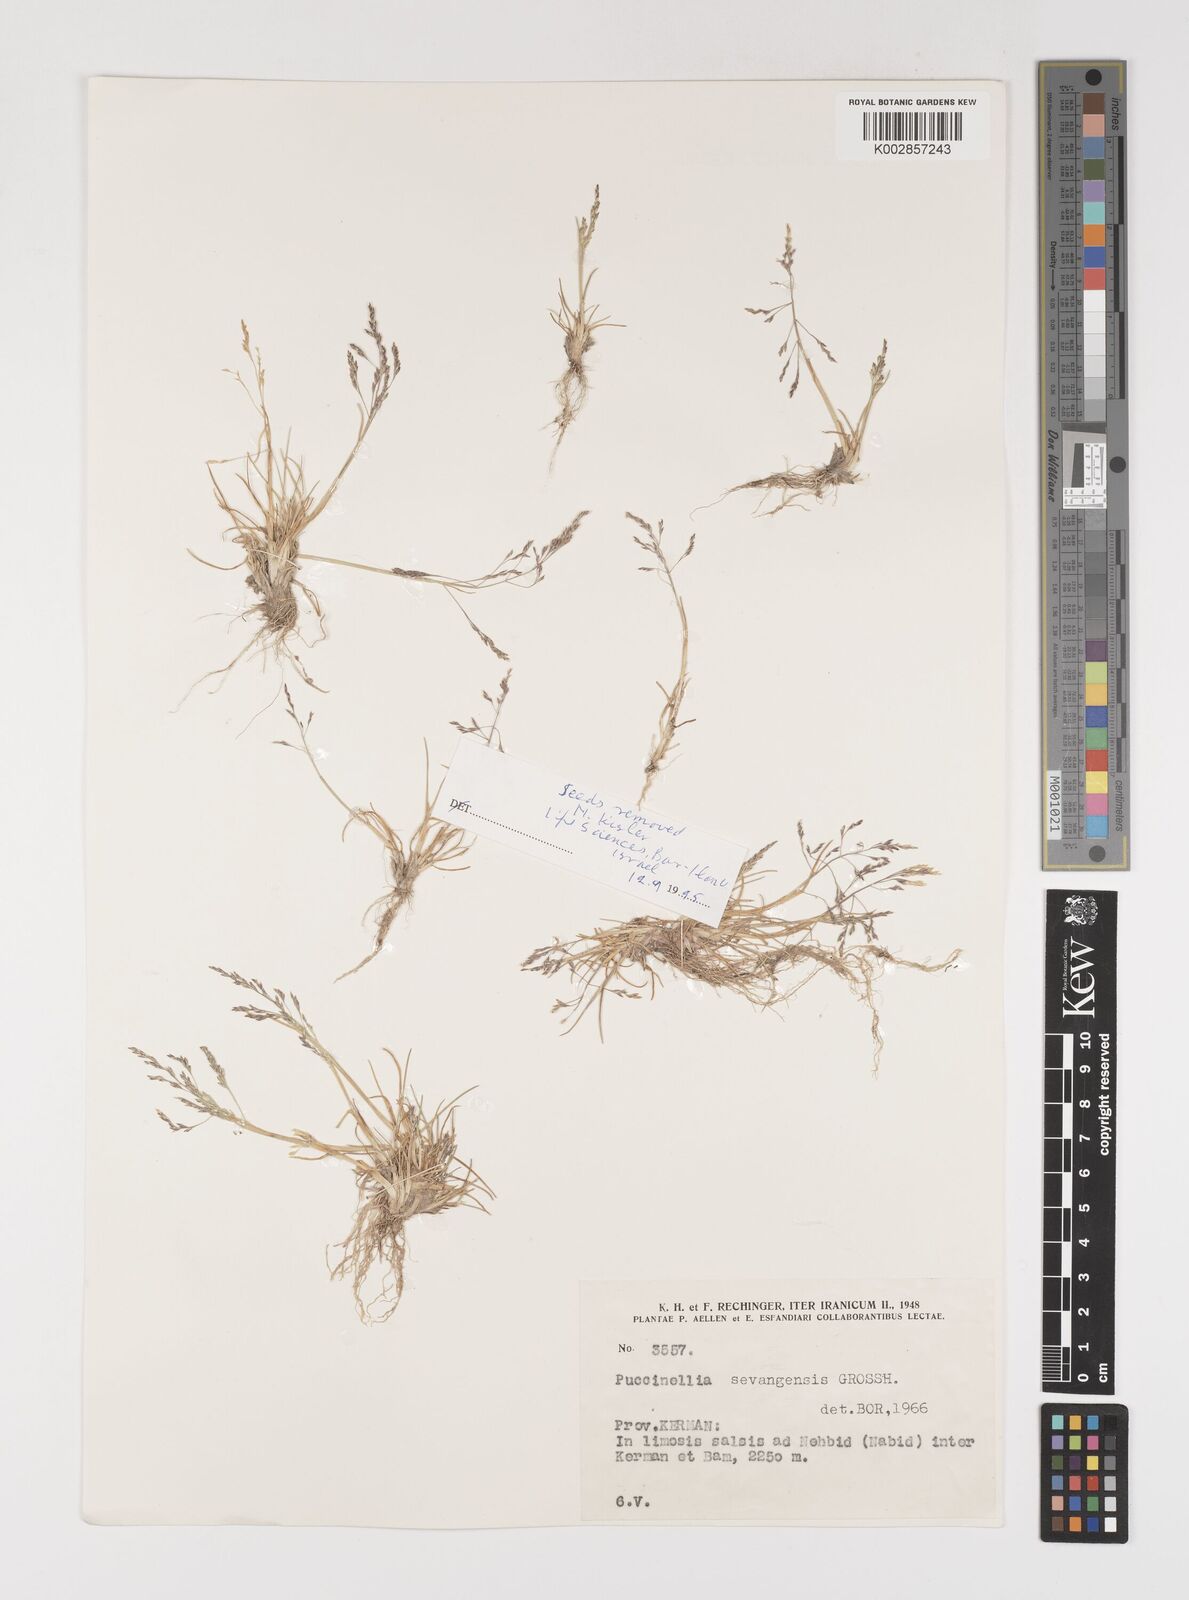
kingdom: Plantae
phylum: Tracheophyta
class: Liliopsida
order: Poales
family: Poaceae
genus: Puccinellia
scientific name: Puccinellia distans
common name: Weeping alkaligrass
